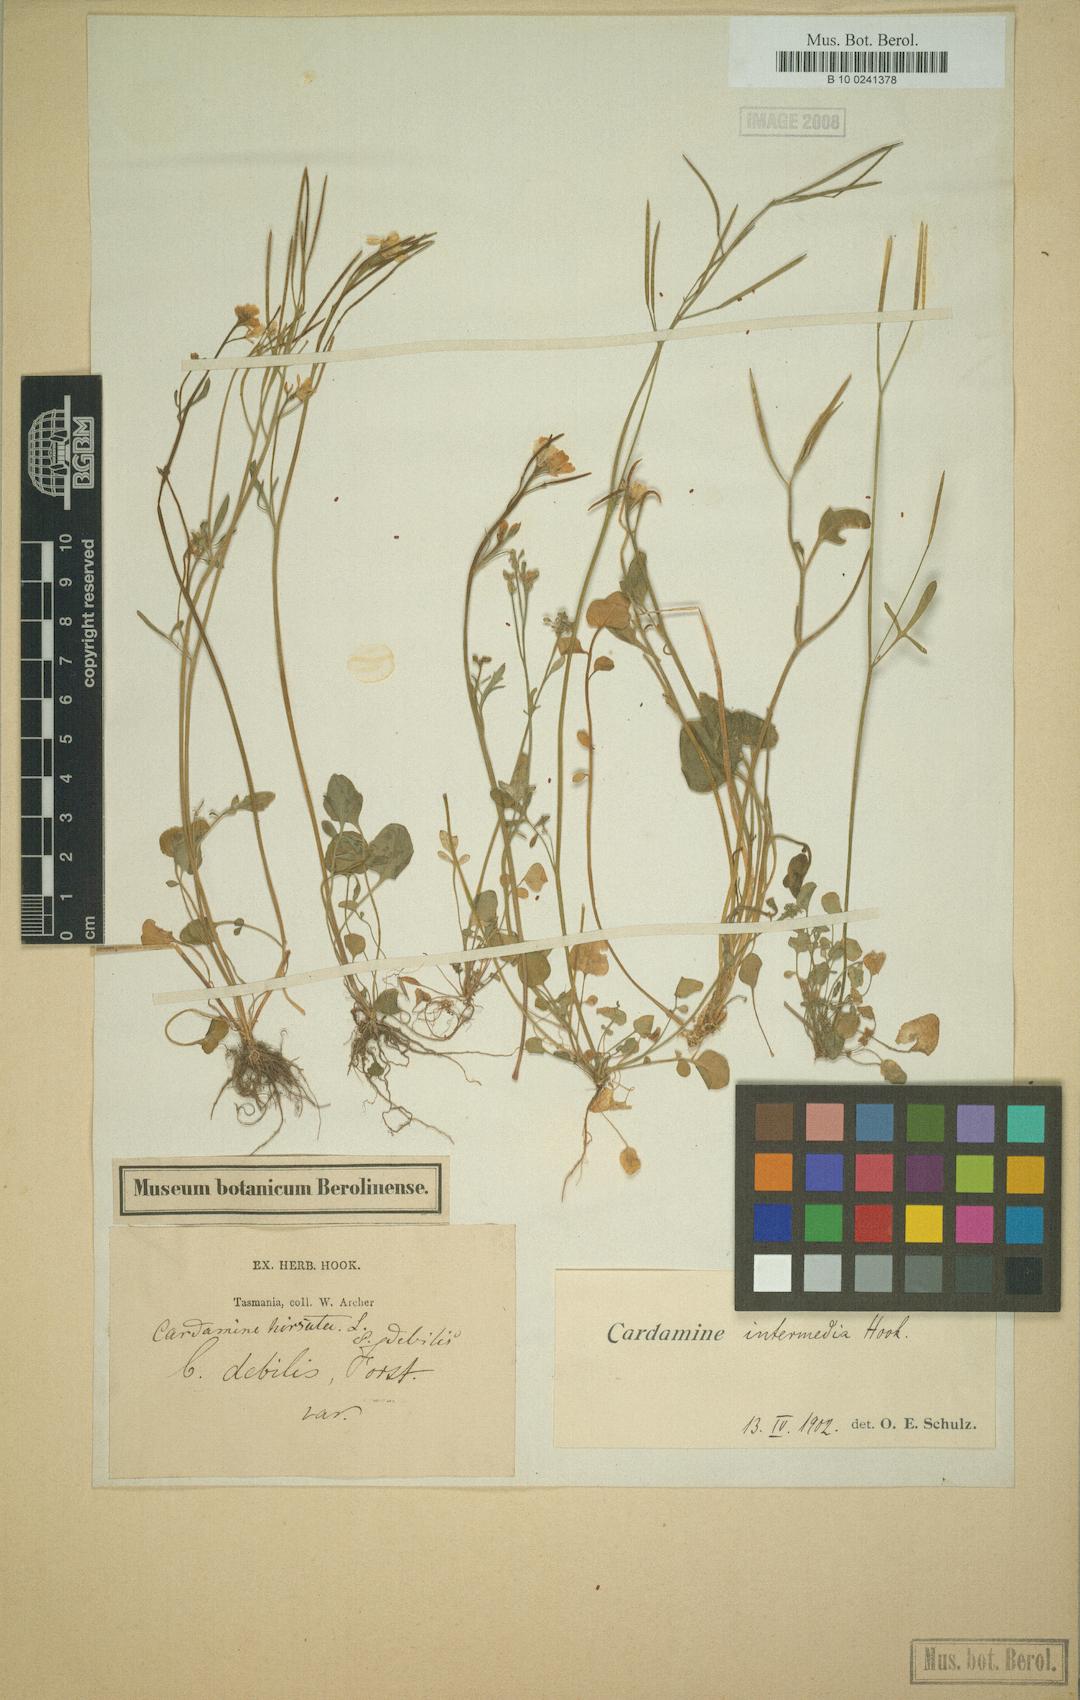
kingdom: Plantae
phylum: Tracheophyta
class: Magnoliopsida
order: Brassicales
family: Brassicaceae
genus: Cardamine
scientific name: Cardamine lilacina
